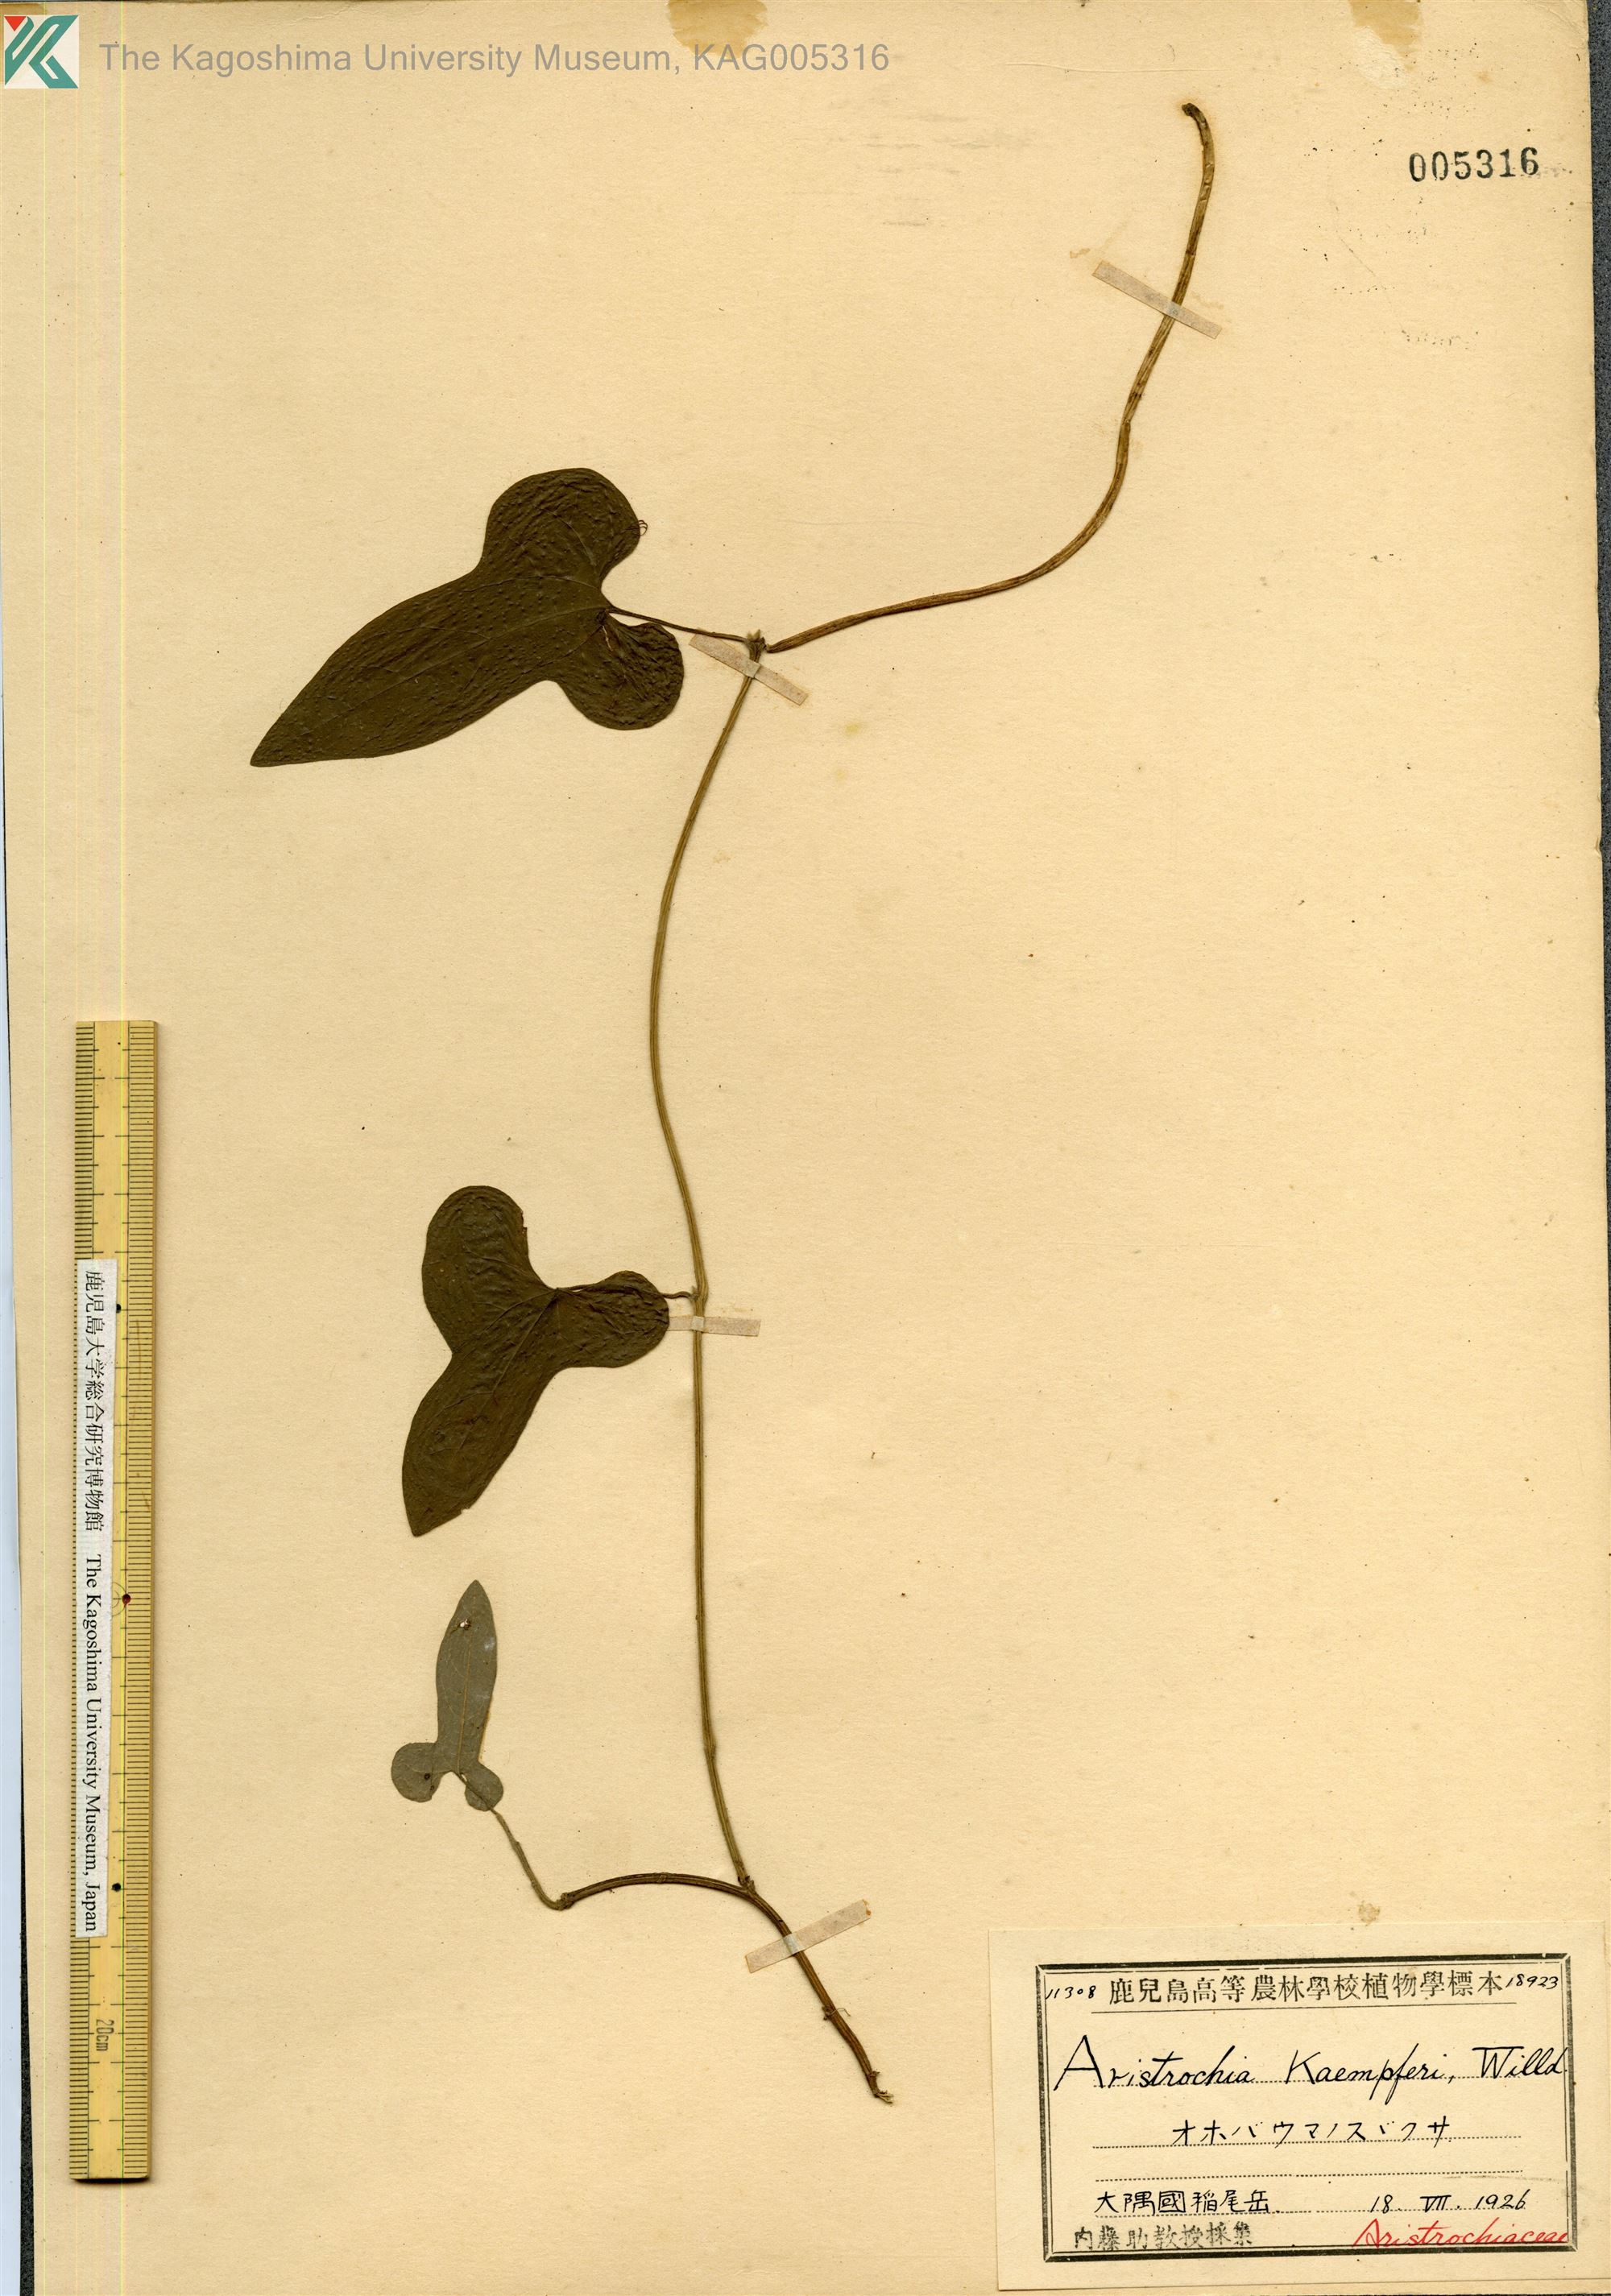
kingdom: Plantae
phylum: Tracheophyta
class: Magnoliopsida
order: Piperales
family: Aristolochiaceae
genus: Isotrema
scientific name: Isotrema kaempferi
